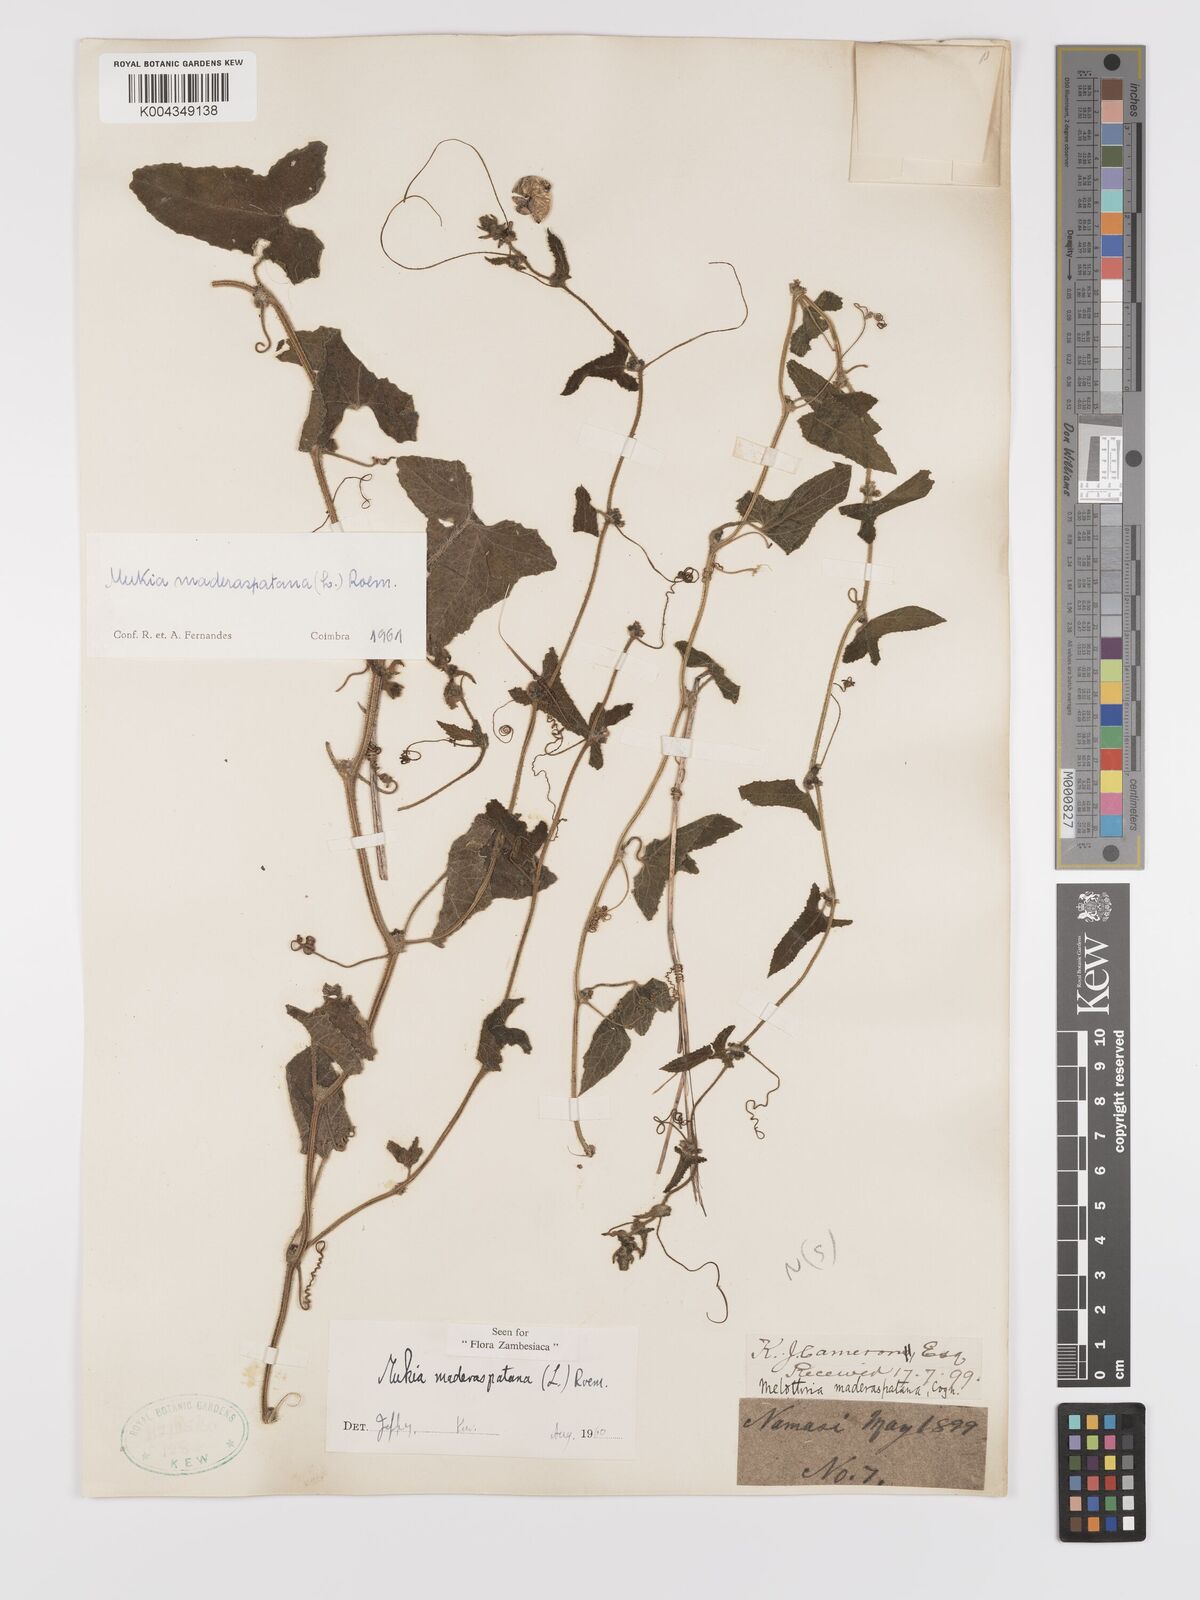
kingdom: Plantae
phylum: Tracheophyta
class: Magnoliopsida
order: Cucurbitales
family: Cucurbitaceae
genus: Cucumis
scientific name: Cucumis maderaspatanus
